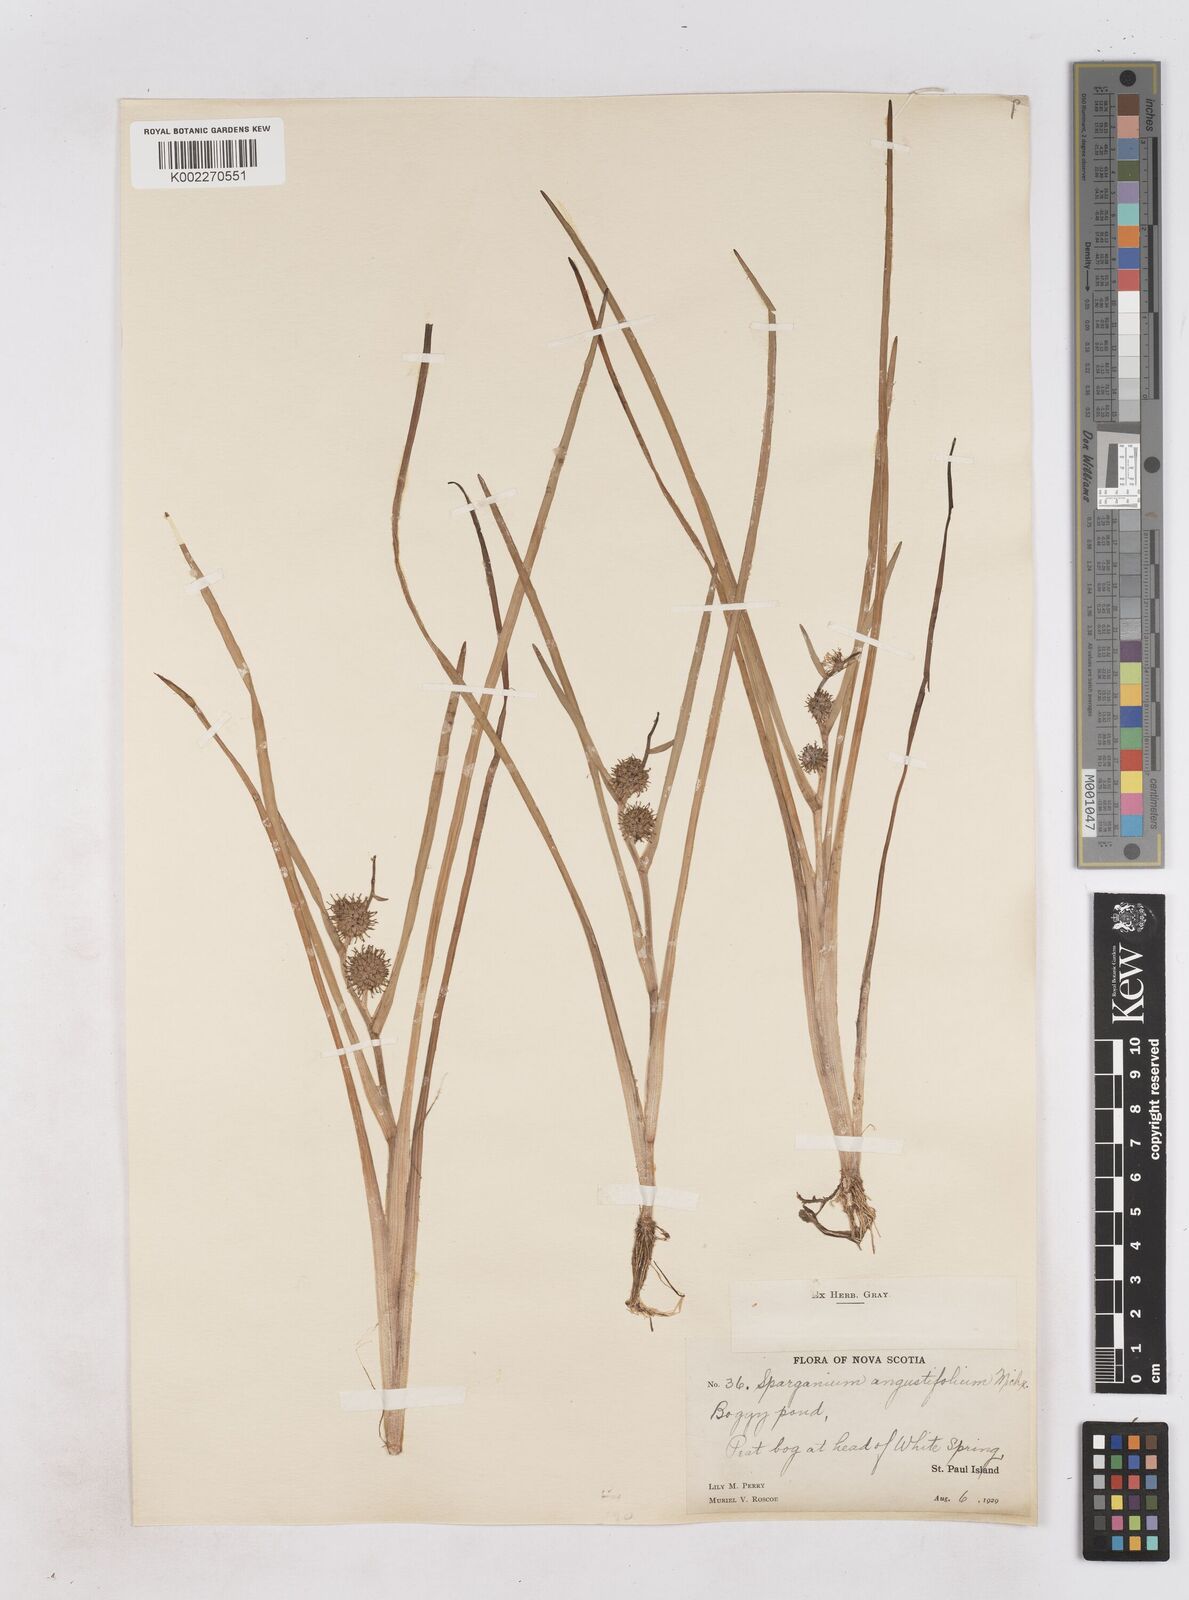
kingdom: Plantae
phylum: Tracheophyta
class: Liliopsida
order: Poales
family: Typhaceae
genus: Sparganium
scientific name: Sparganium angustifolium
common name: Floating bur-reed
